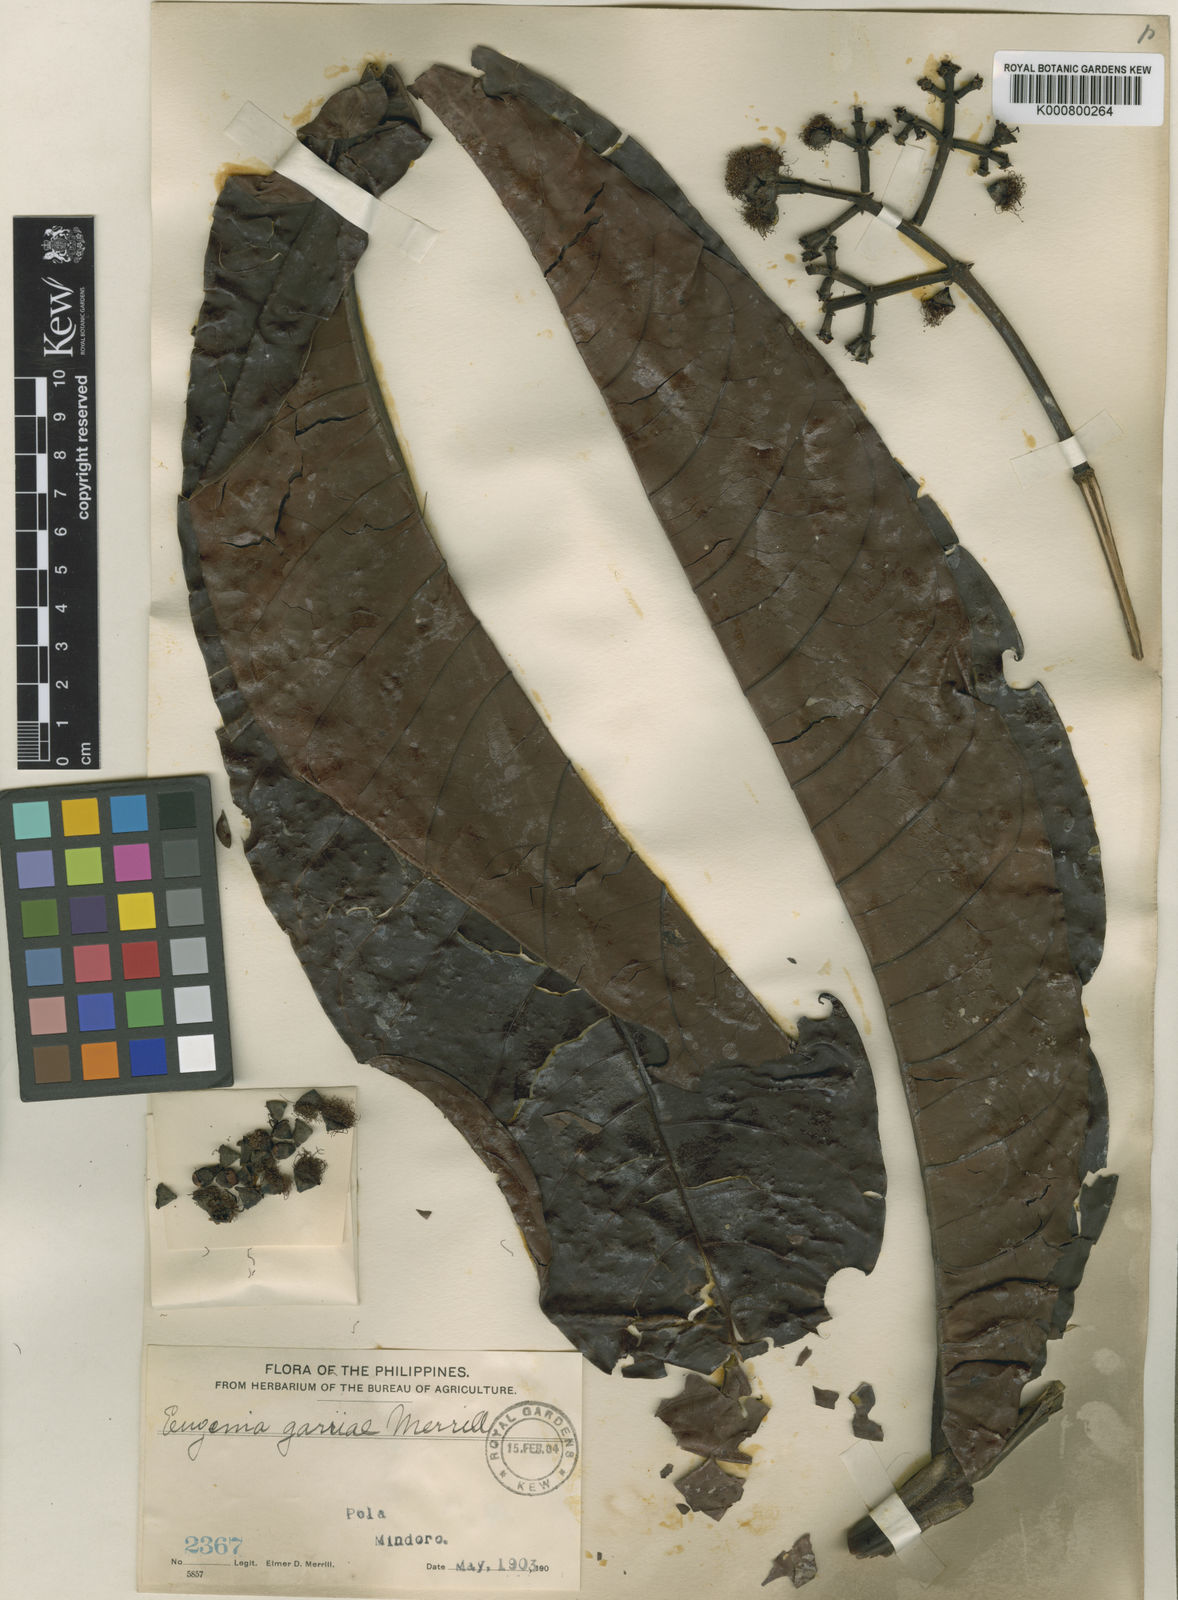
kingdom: Plantae
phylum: Tracheophyta
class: Magnoliopsida
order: Myrtales
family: Myrtaceae
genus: Syzygium
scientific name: Syzygium garciae
